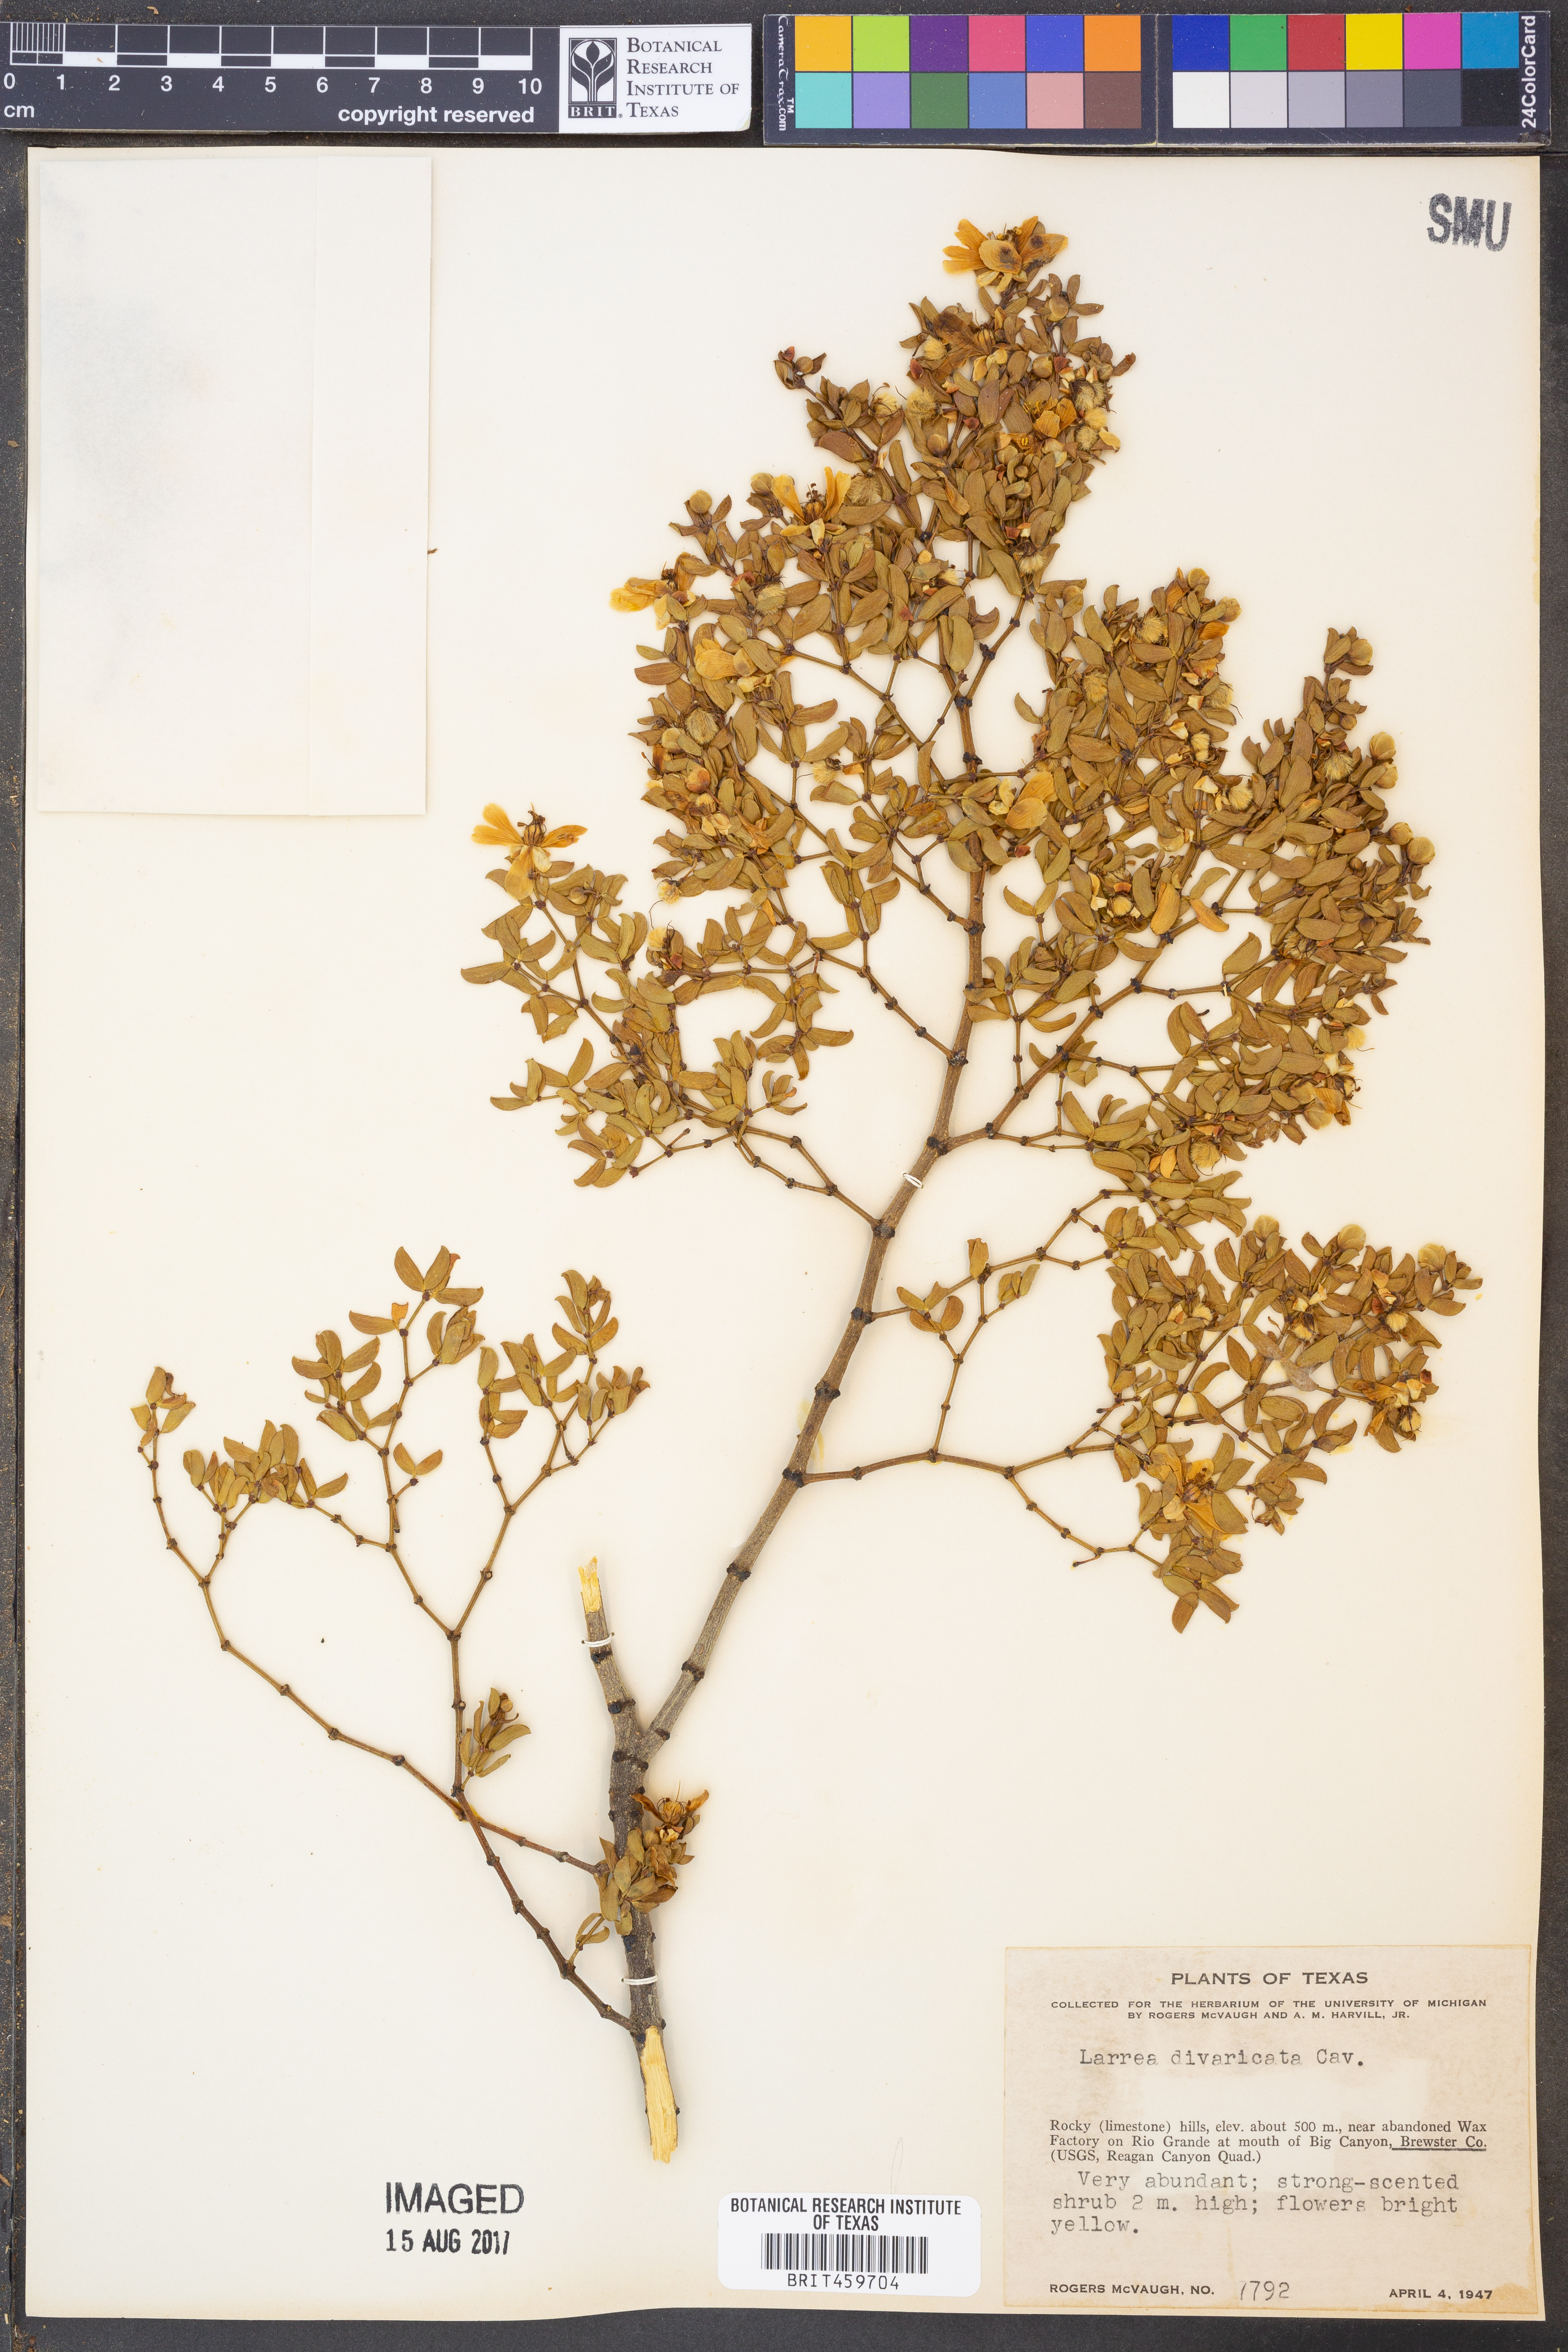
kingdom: Plantae
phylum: Tracheophyta
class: Magnoliopsida
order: Zygophyllales
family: Zygophyllaceae
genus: Larrea
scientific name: Larrea divaricata
